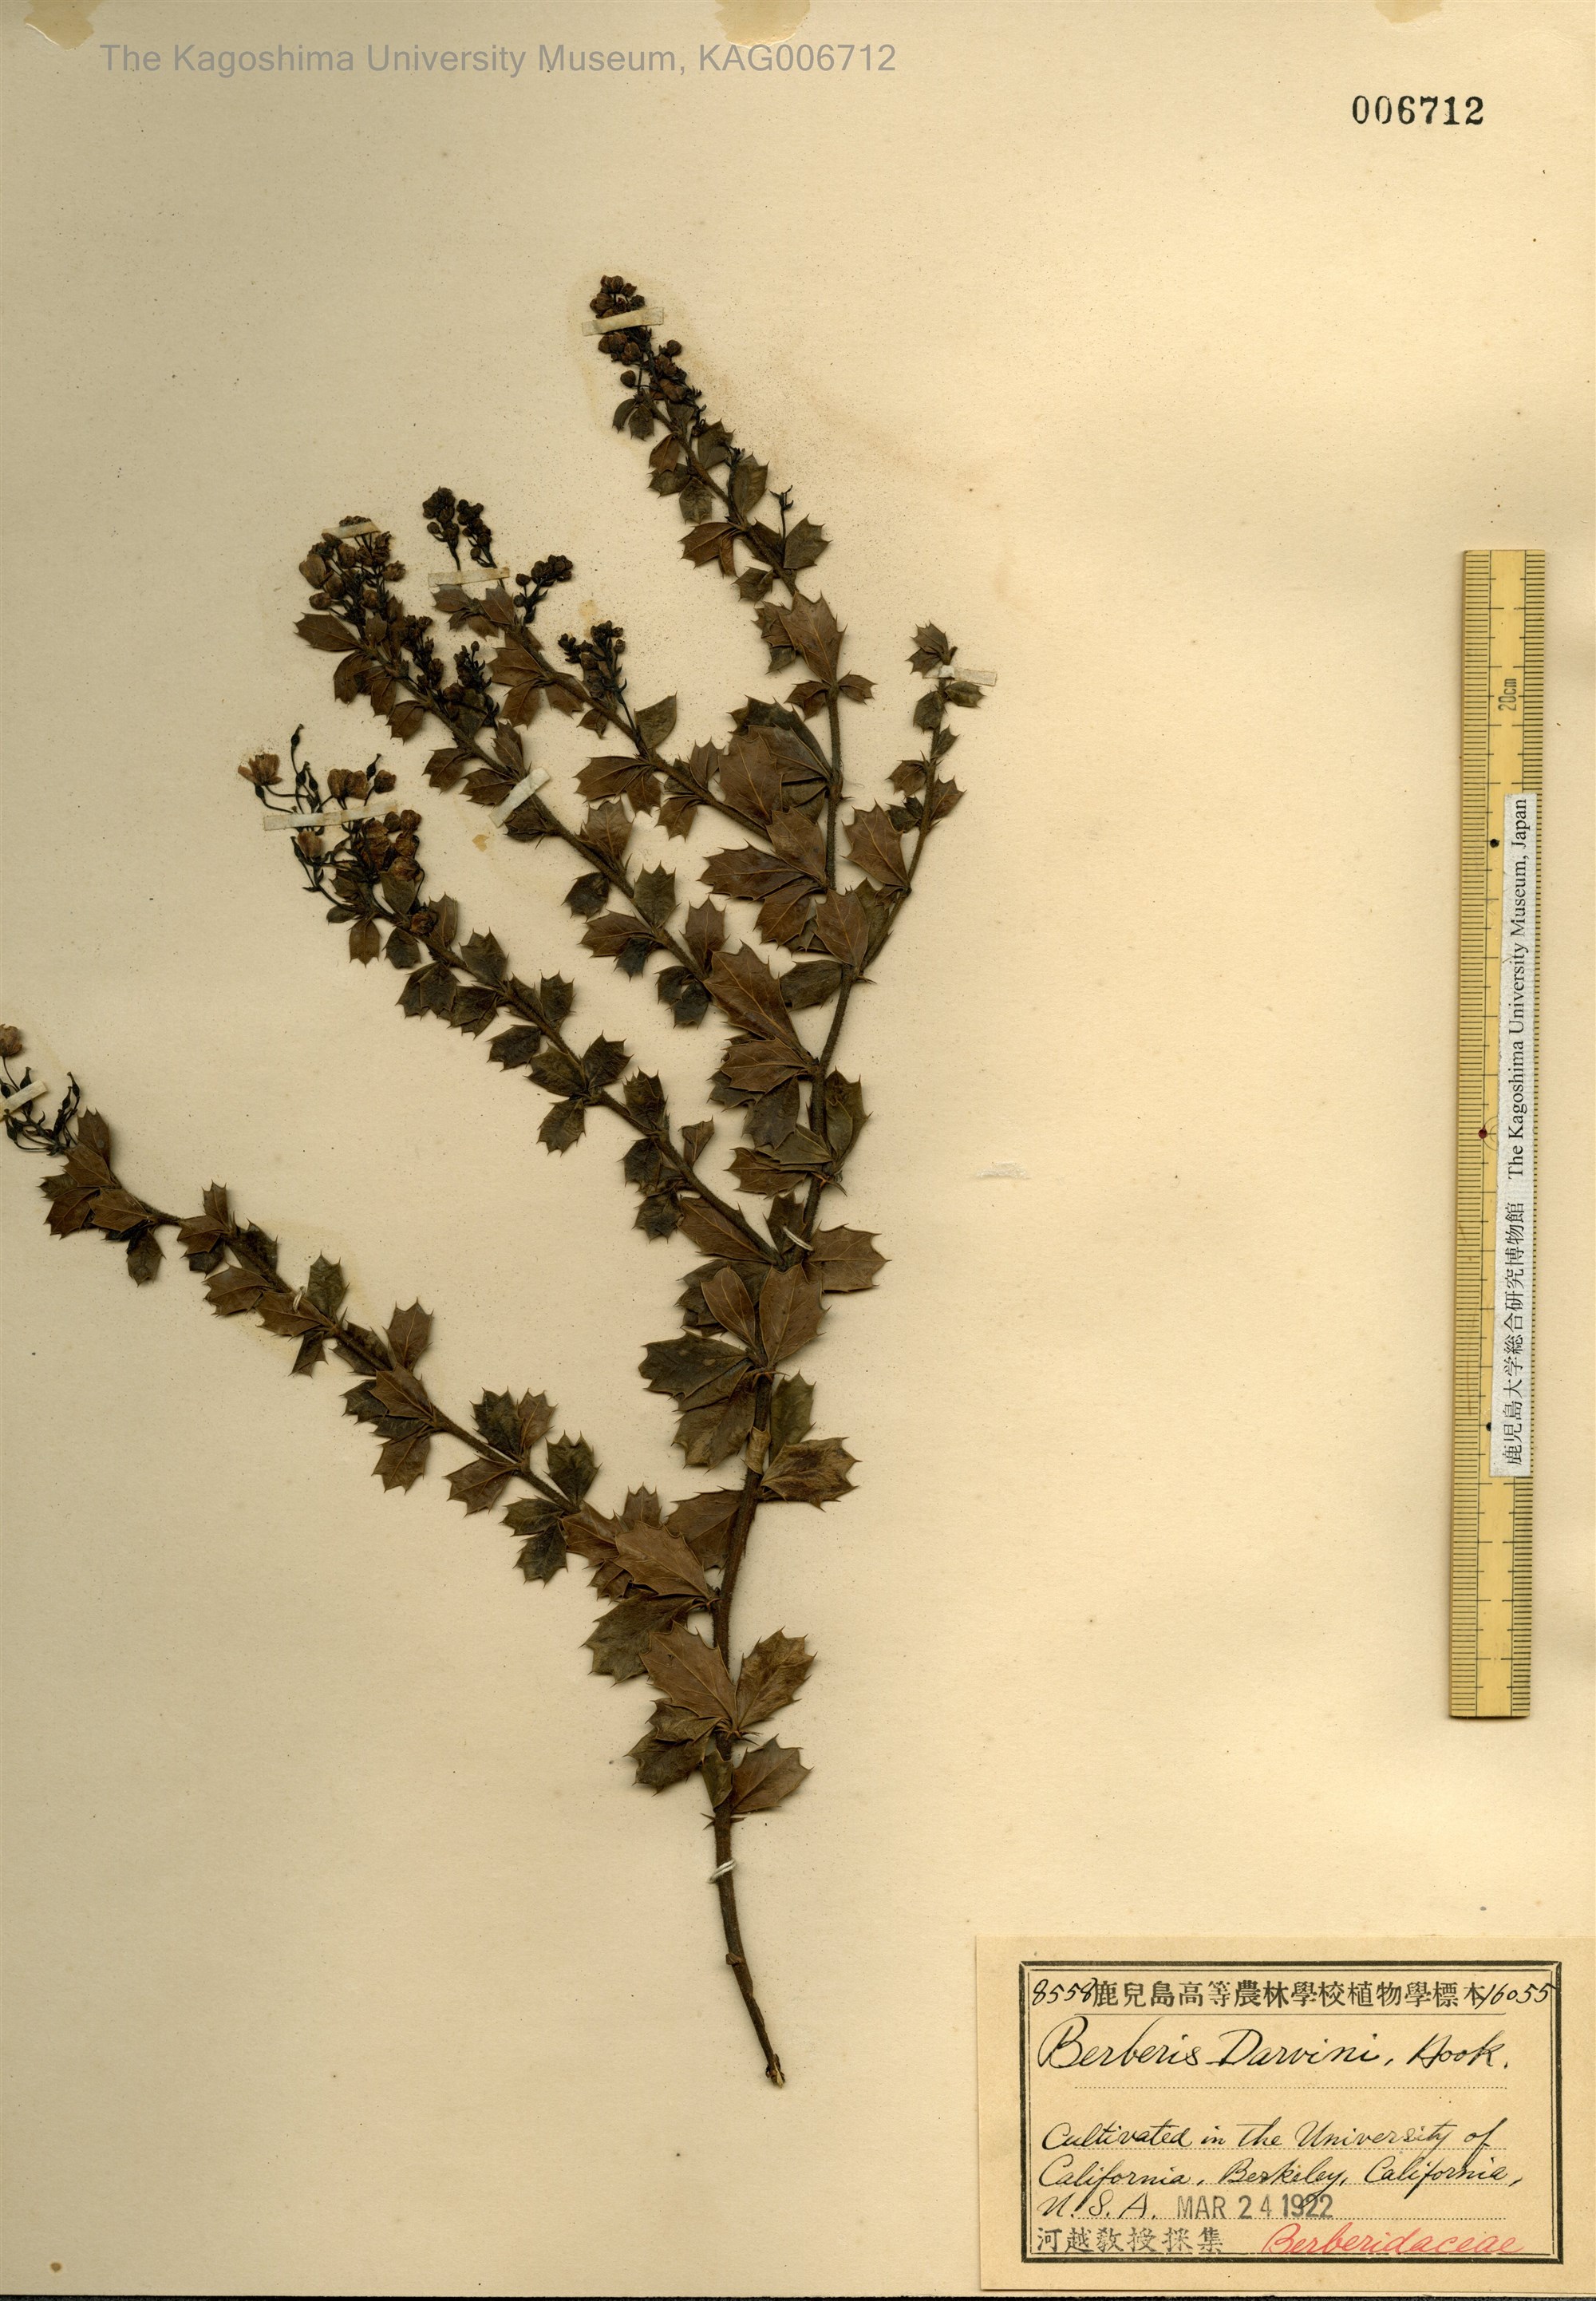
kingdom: Plantae
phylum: Tracheophyta
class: Magnoliopsida
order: Ranunculales
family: Berberidaceae
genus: Berberis
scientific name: Berberis darwinii
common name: Darwin's barberry
